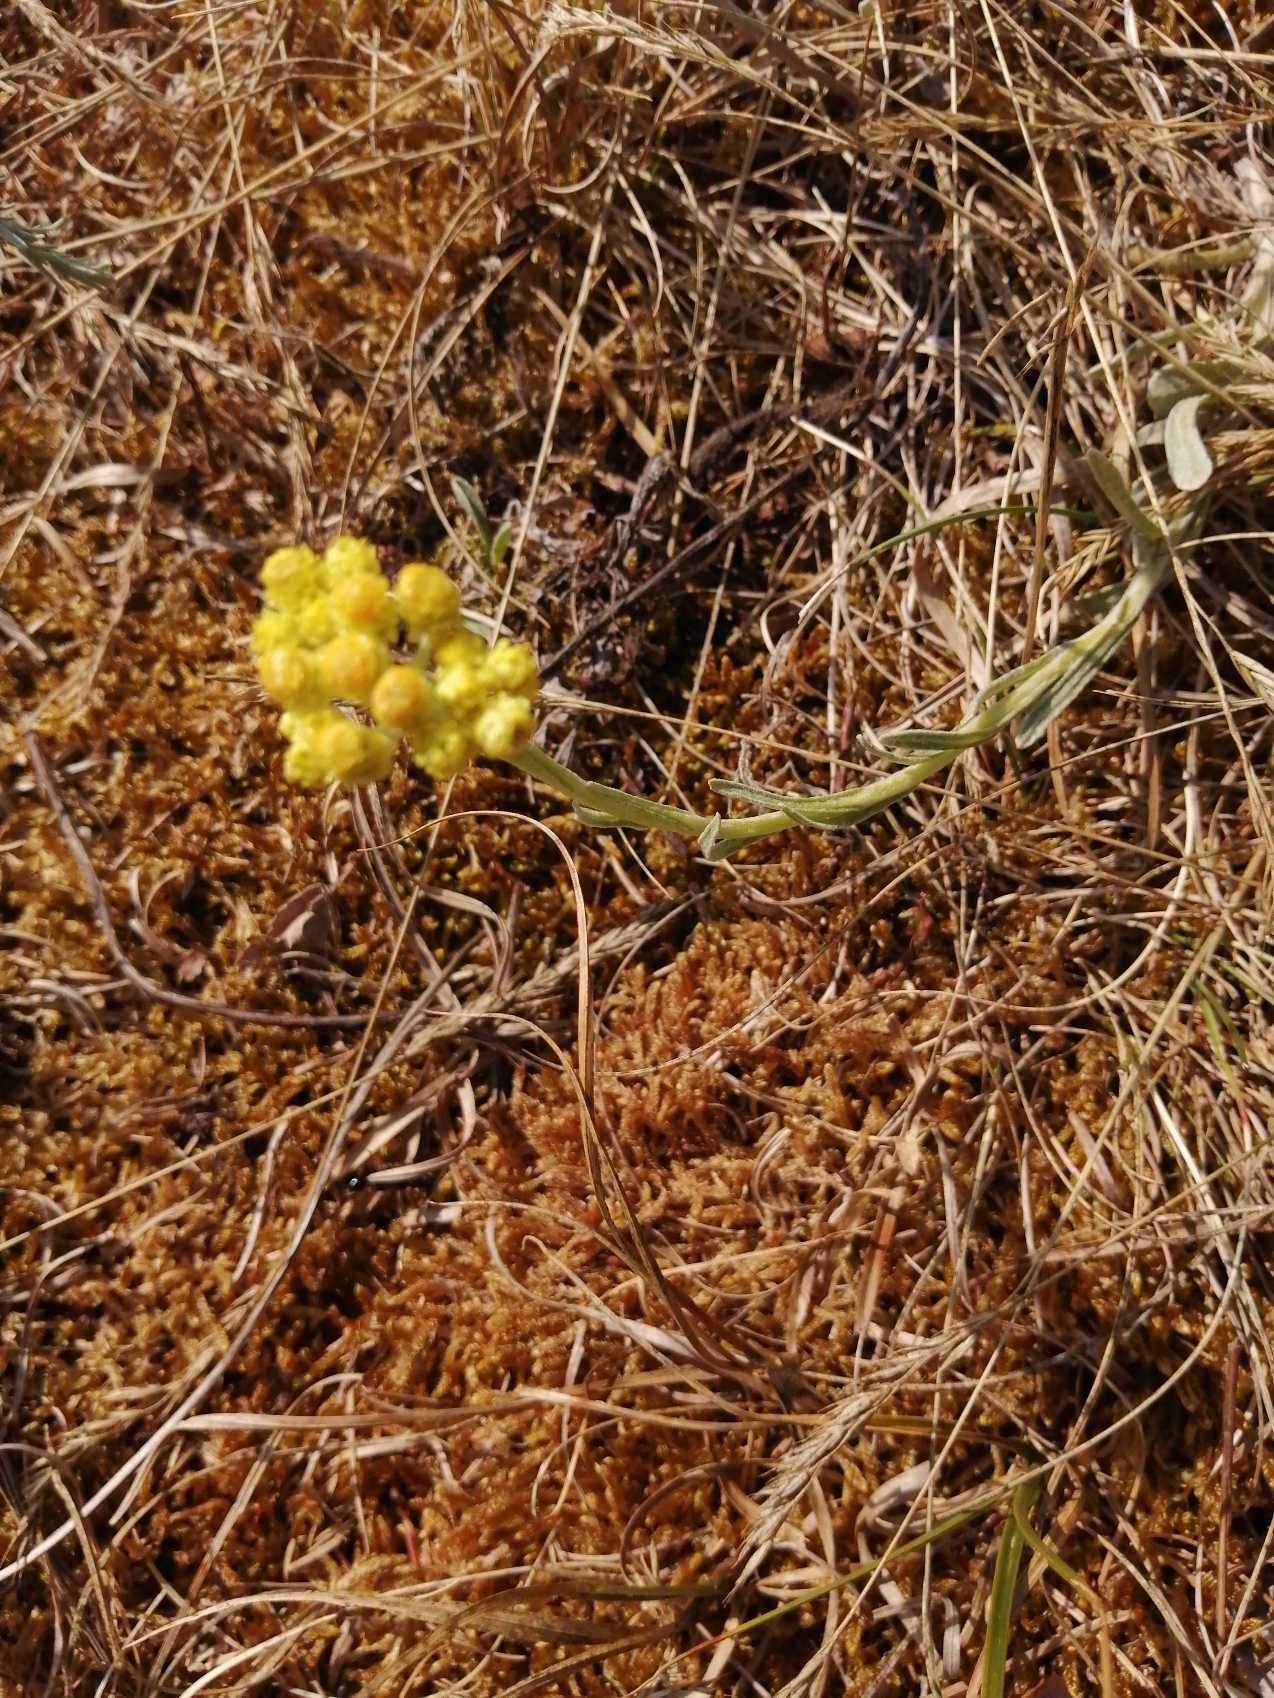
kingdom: Plantae
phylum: Tracheophyta
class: Magnoliopsida
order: Asterales
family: Asteraceae
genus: Helichrysum
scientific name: Helichrysum arenarium
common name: Gul evighedsblomst
